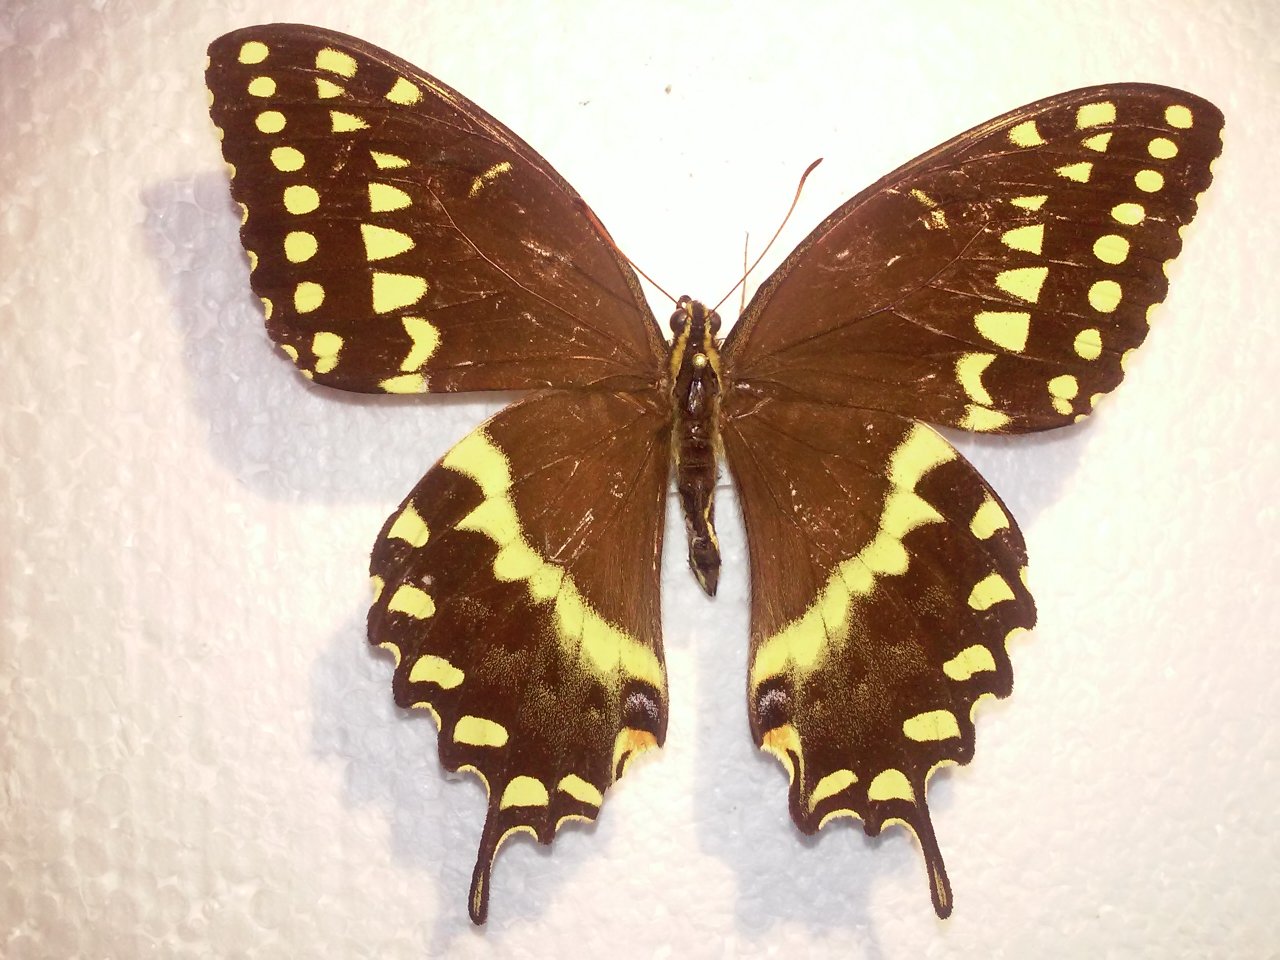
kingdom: Animalia
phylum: Arthropoda
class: Insecta
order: Lepidoptera
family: Papilionidae
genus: Pterourus
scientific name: Pterourus palamedes
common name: Palamedes Swallowtail
